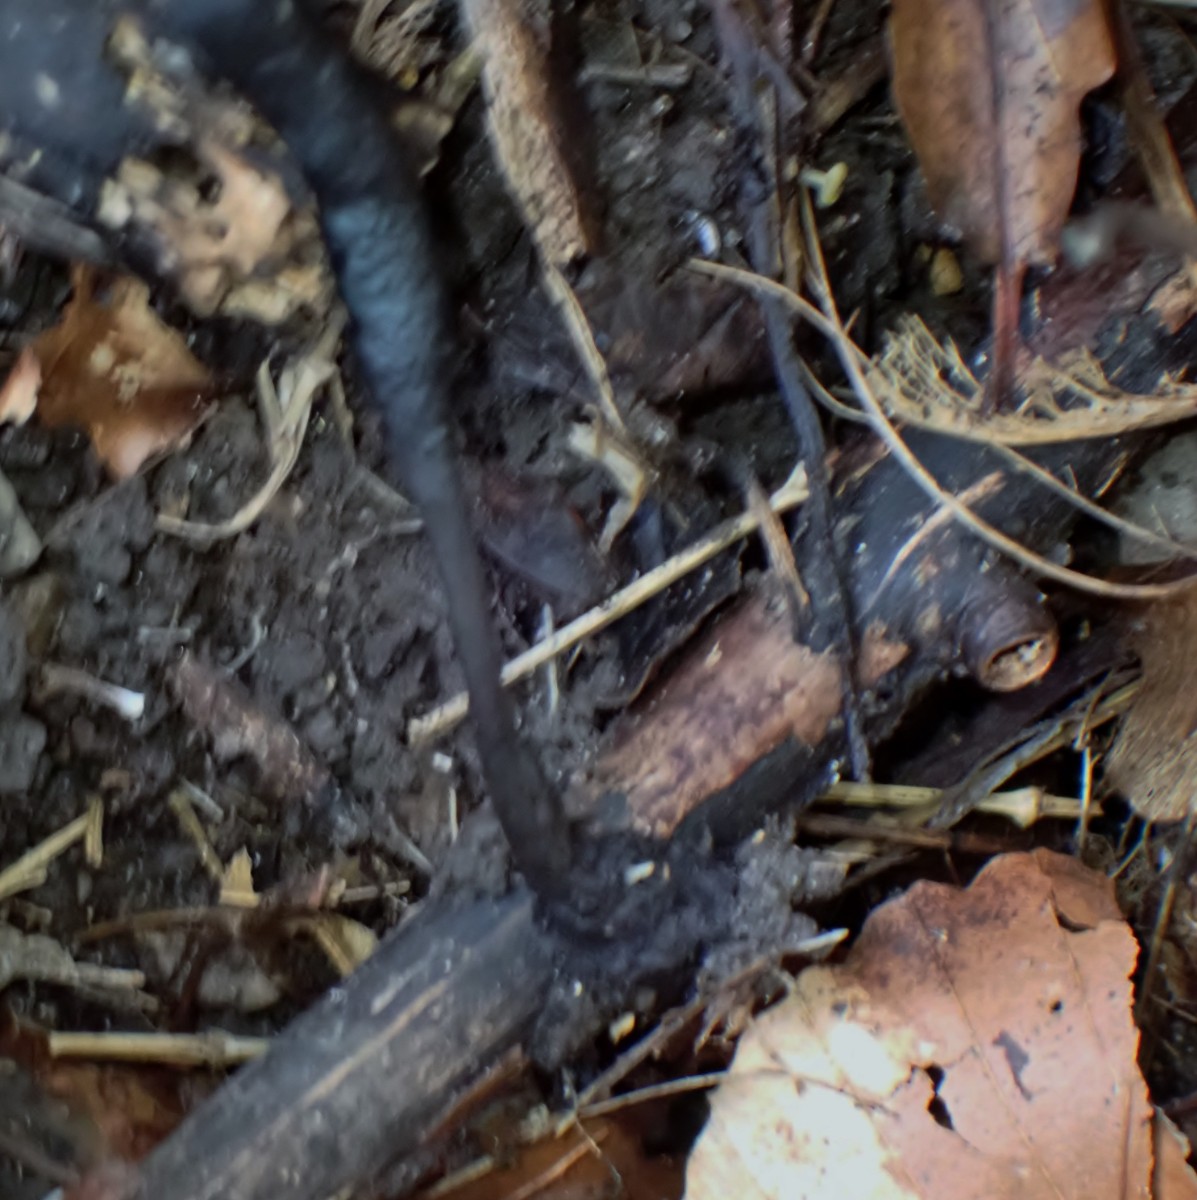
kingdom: Fungi
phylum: Ascomycota
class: Sordariomycetes
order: Xylariales
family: Xylariaceae
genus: Xylaria
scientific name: Xylaria longipes
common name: slank stødsvamp
